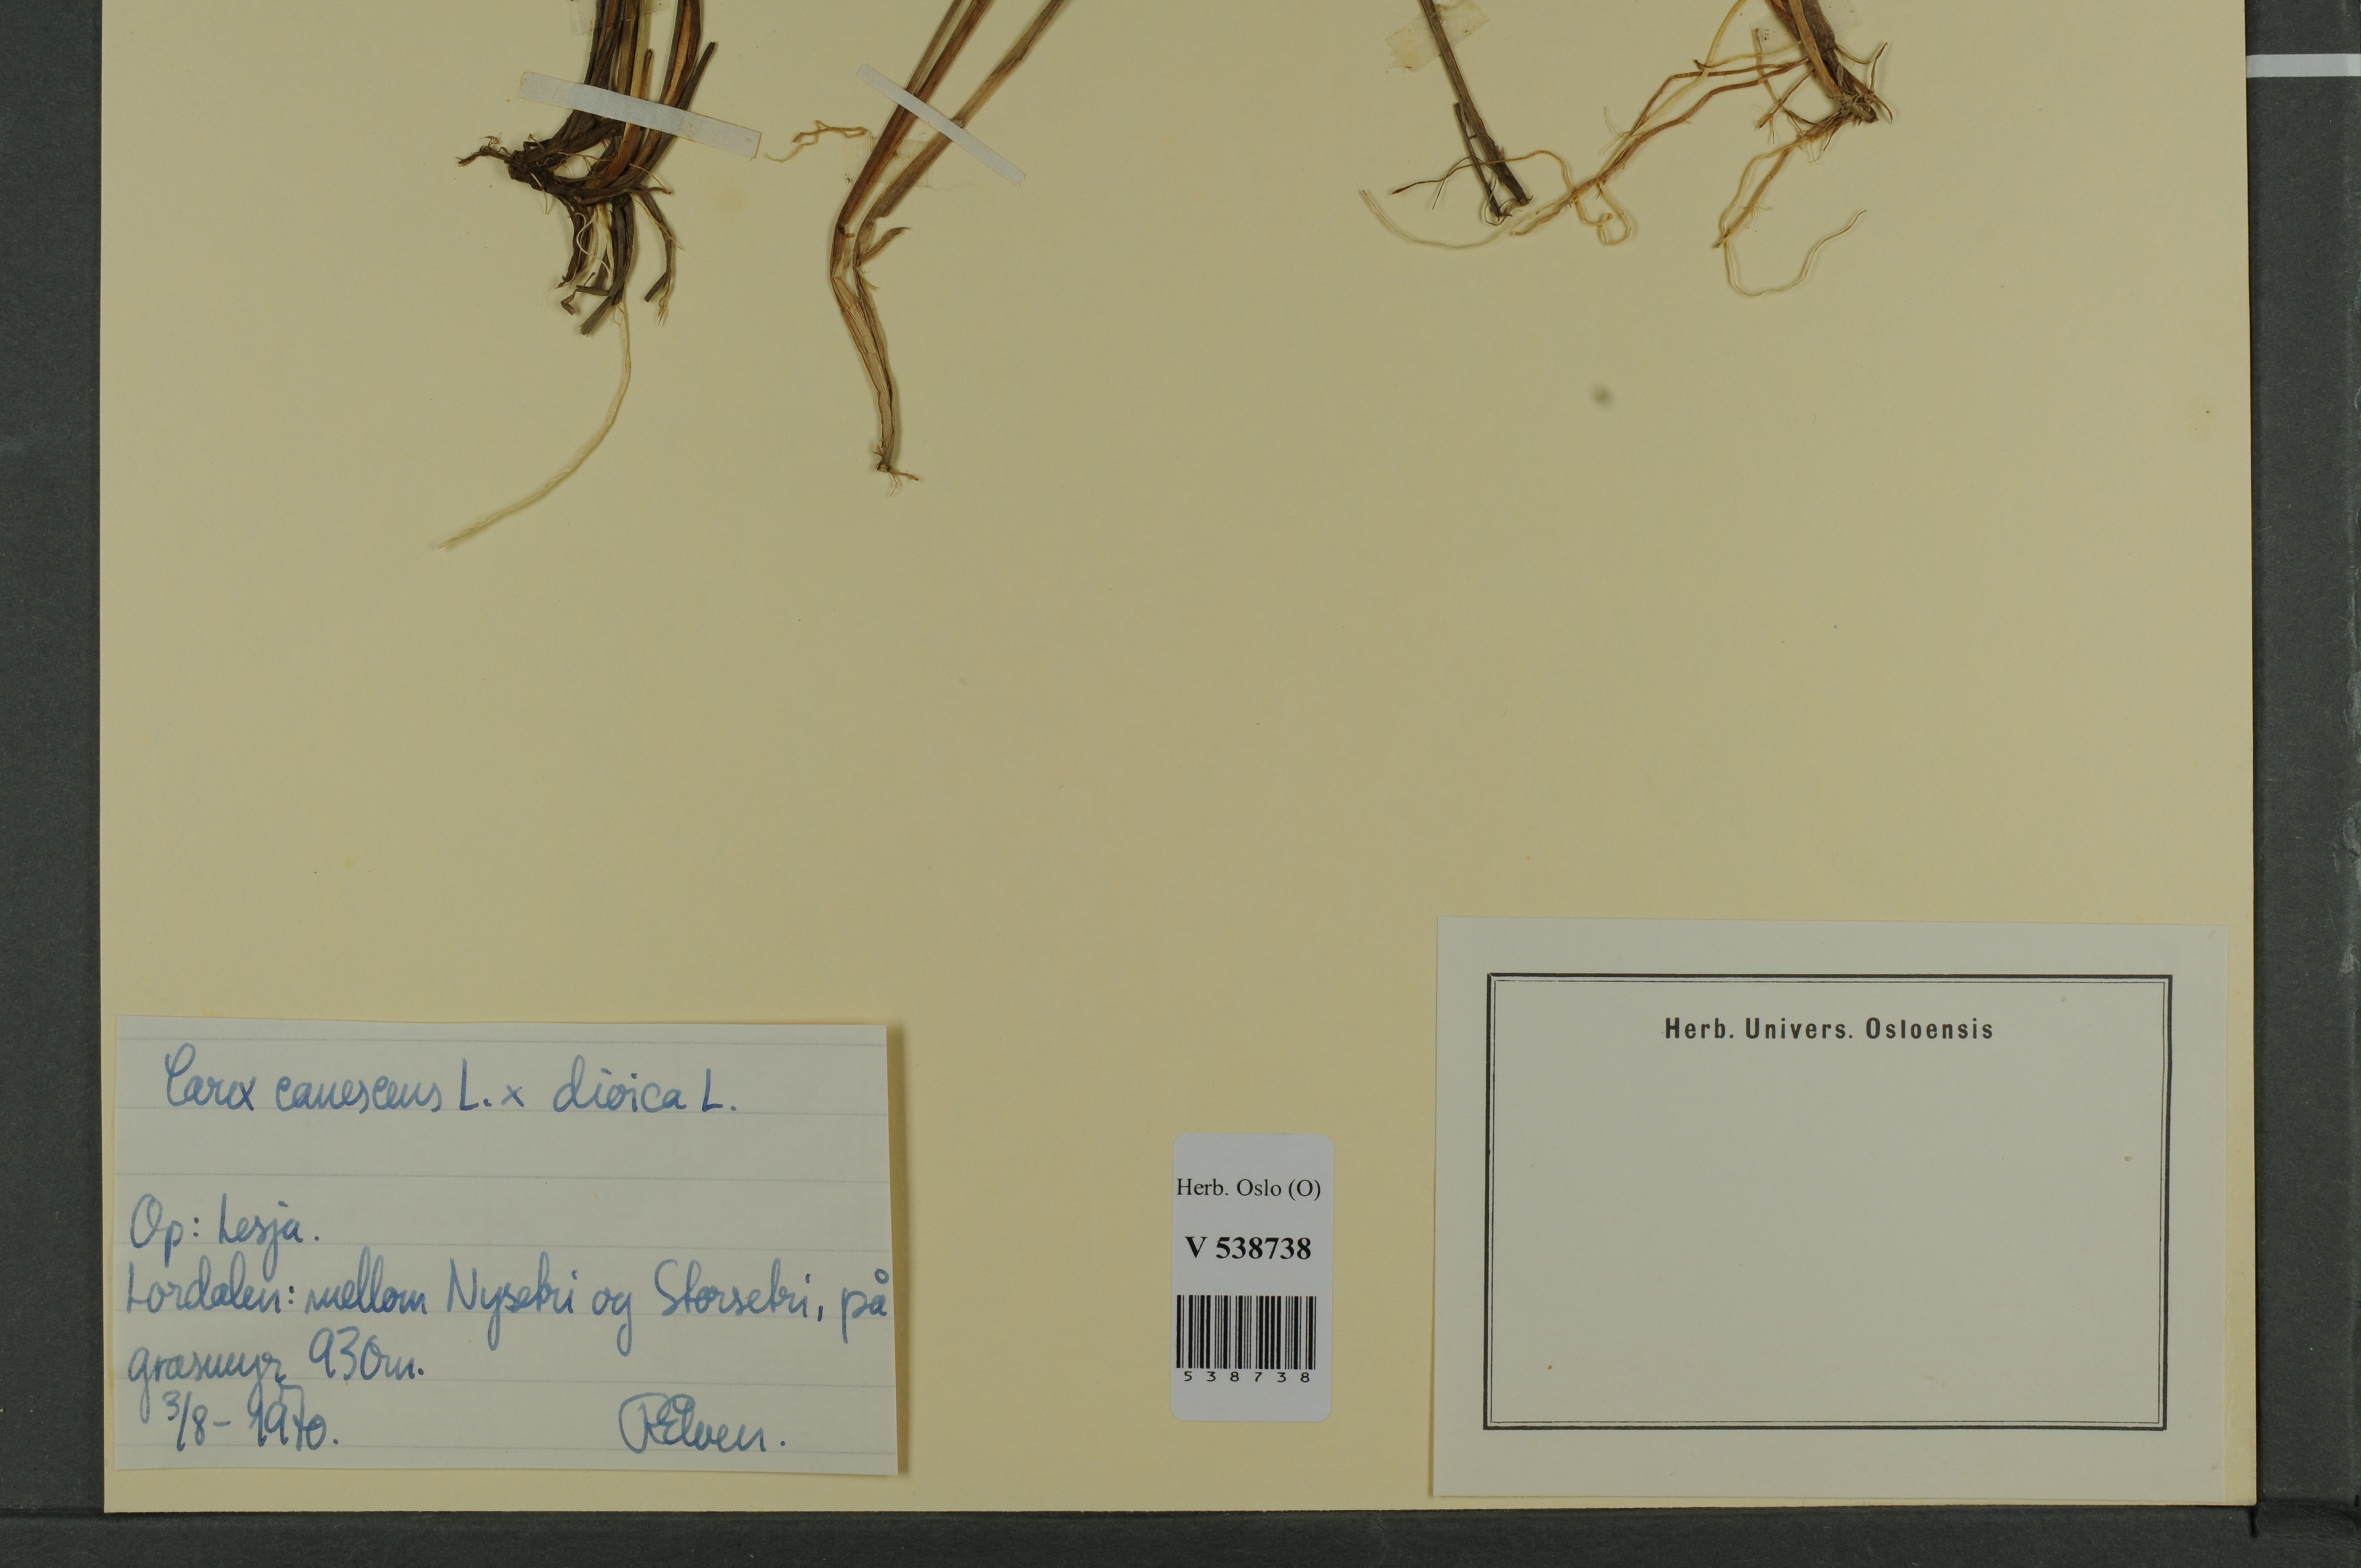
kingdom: Plantae
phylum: Tracheophyta
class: Liliopsida
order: Poales
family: Cyperaceae
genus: Carex
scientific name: Carex
